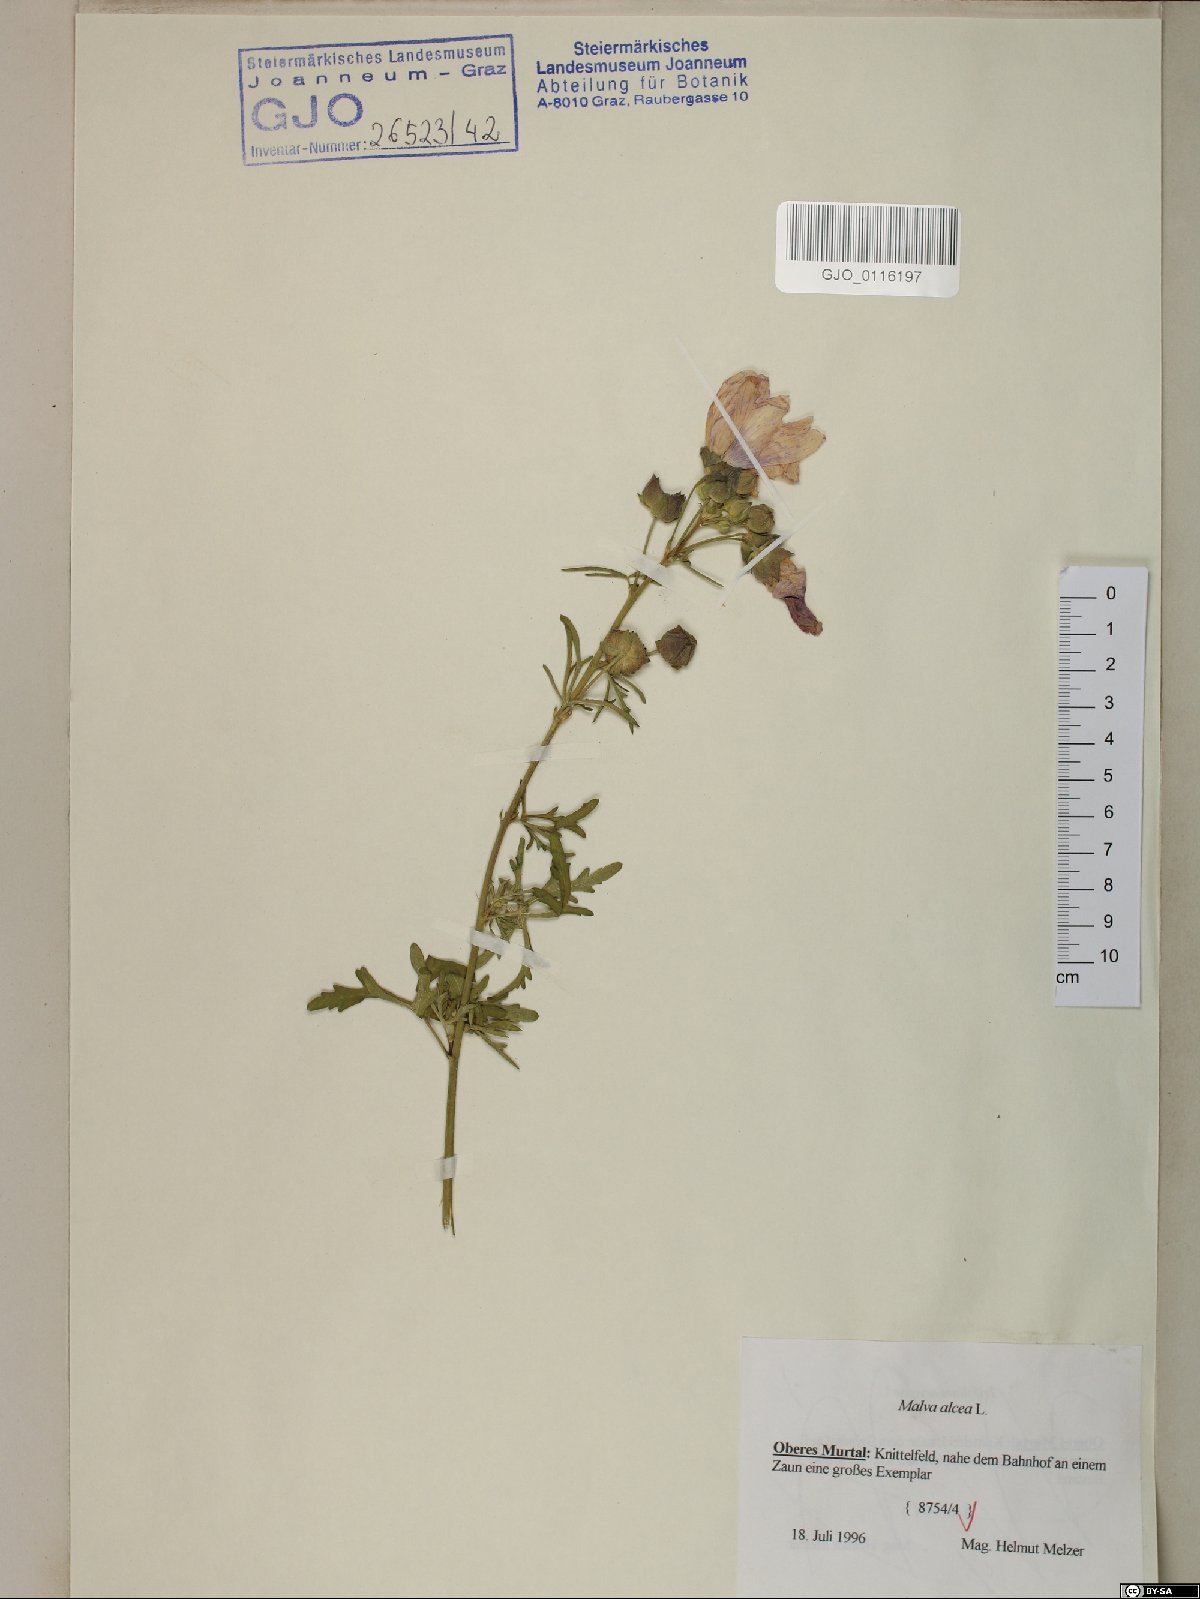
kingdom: Plantae
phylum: Tracheophyta
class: Magnoliopsida
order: Malvales
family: Malvaceae
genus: Malva
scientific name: Malva alcea
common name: Greater musk-mallow
